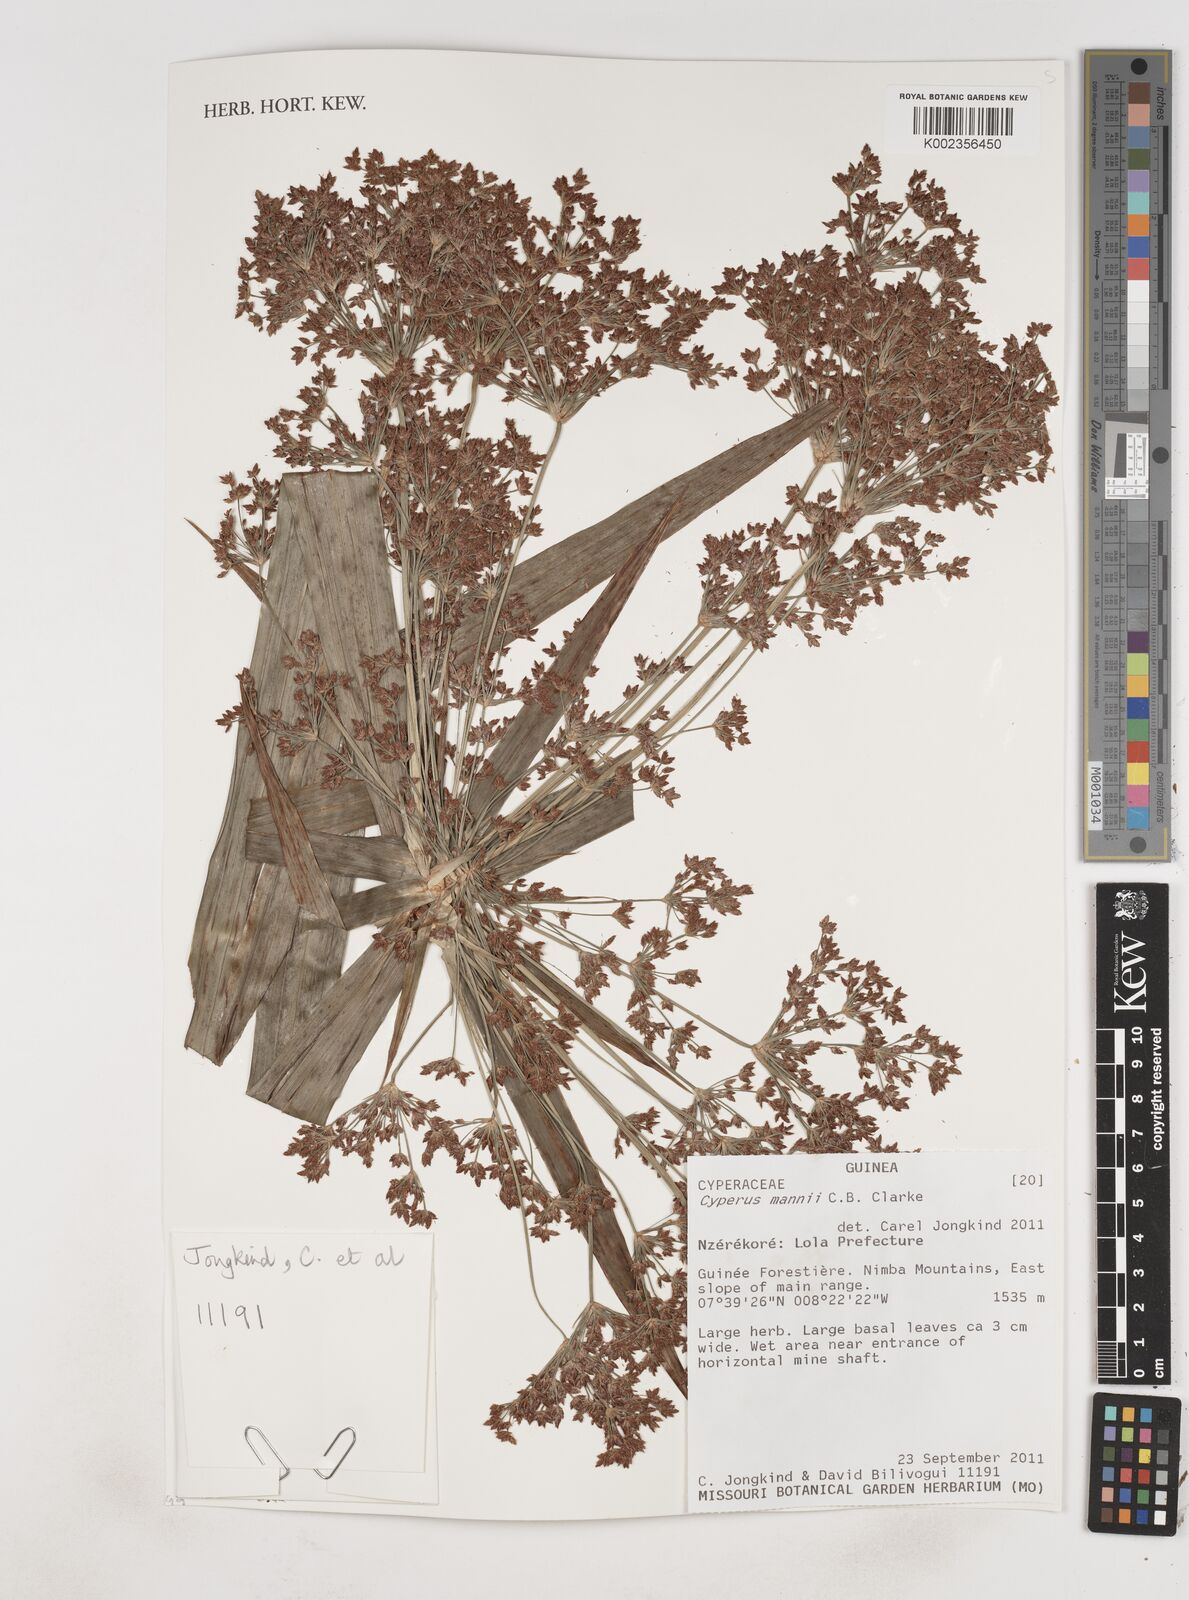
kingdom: Plantae
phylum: Tracheophyta
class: Liliopsida
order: Poales
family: Cyperaceae
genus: Cyperus
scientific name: Cyperus baronii
